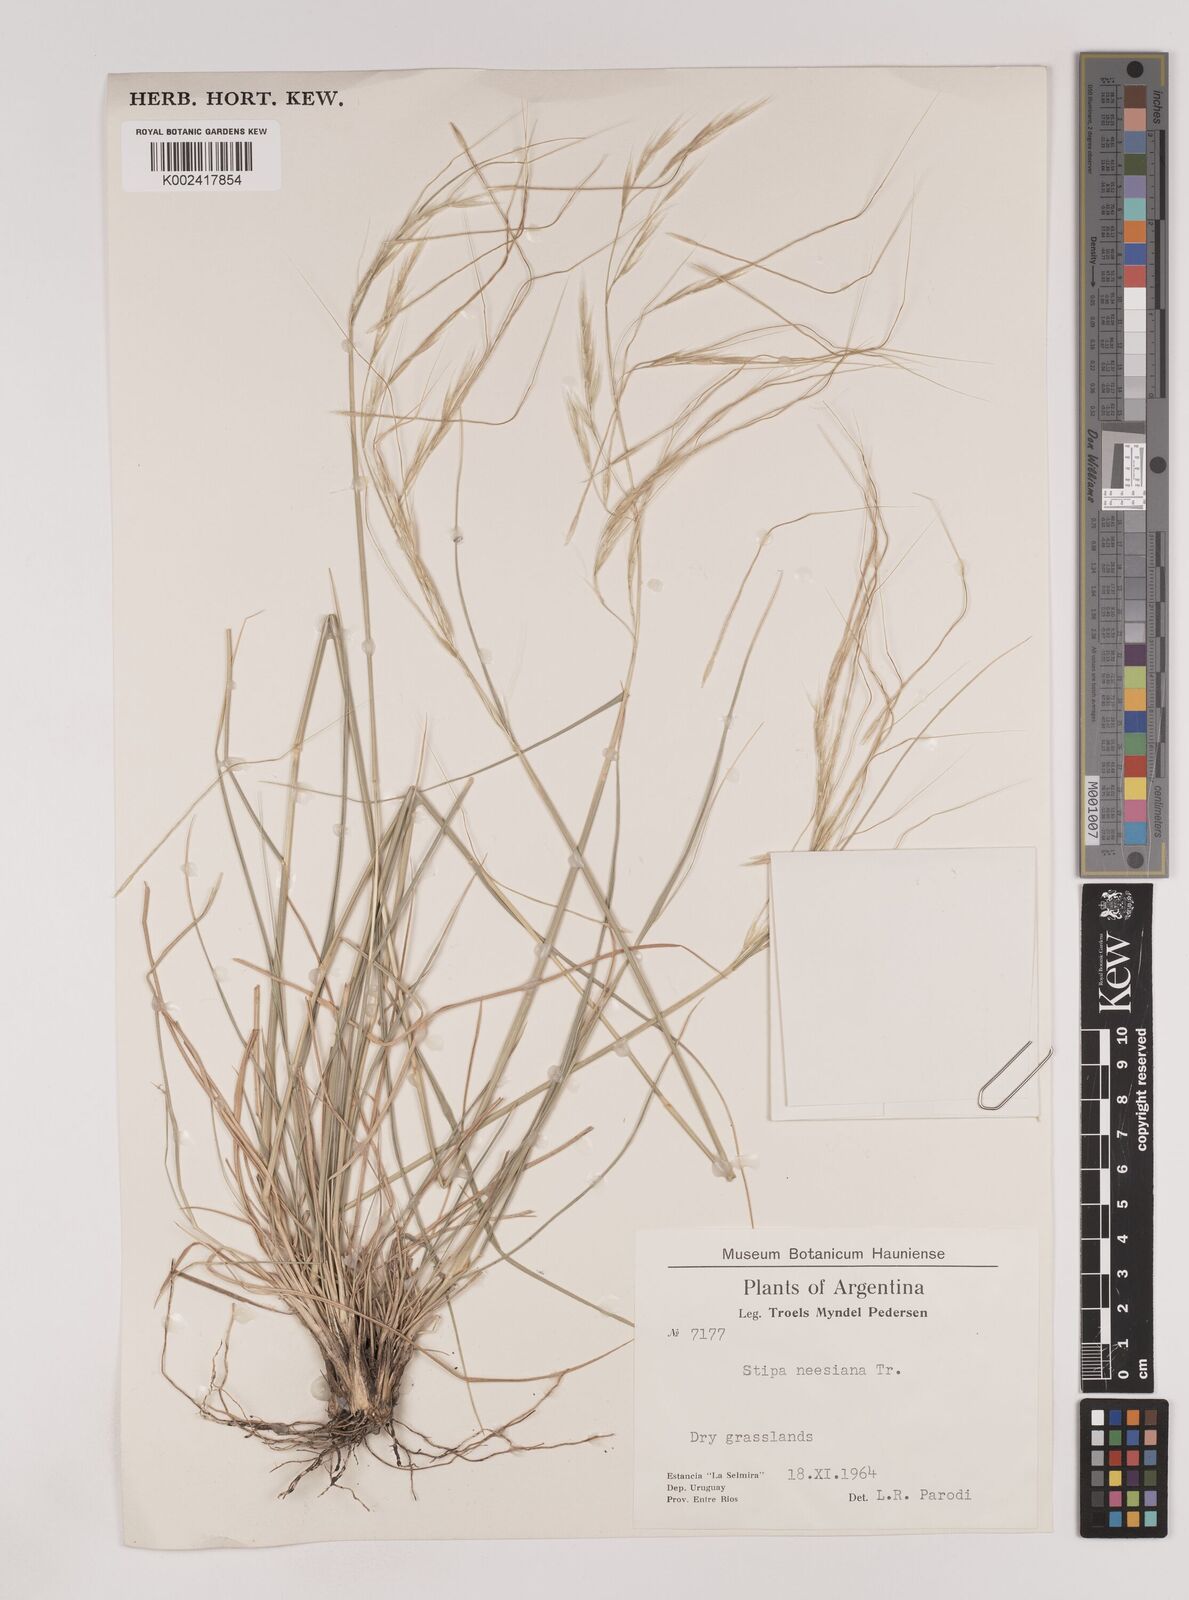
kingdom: Plantae
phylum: Tracheophyta
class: Liliopsida
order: Poales
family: Poaceae
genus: Nassella
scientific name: Nassella neesiana
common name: American needle-grass
